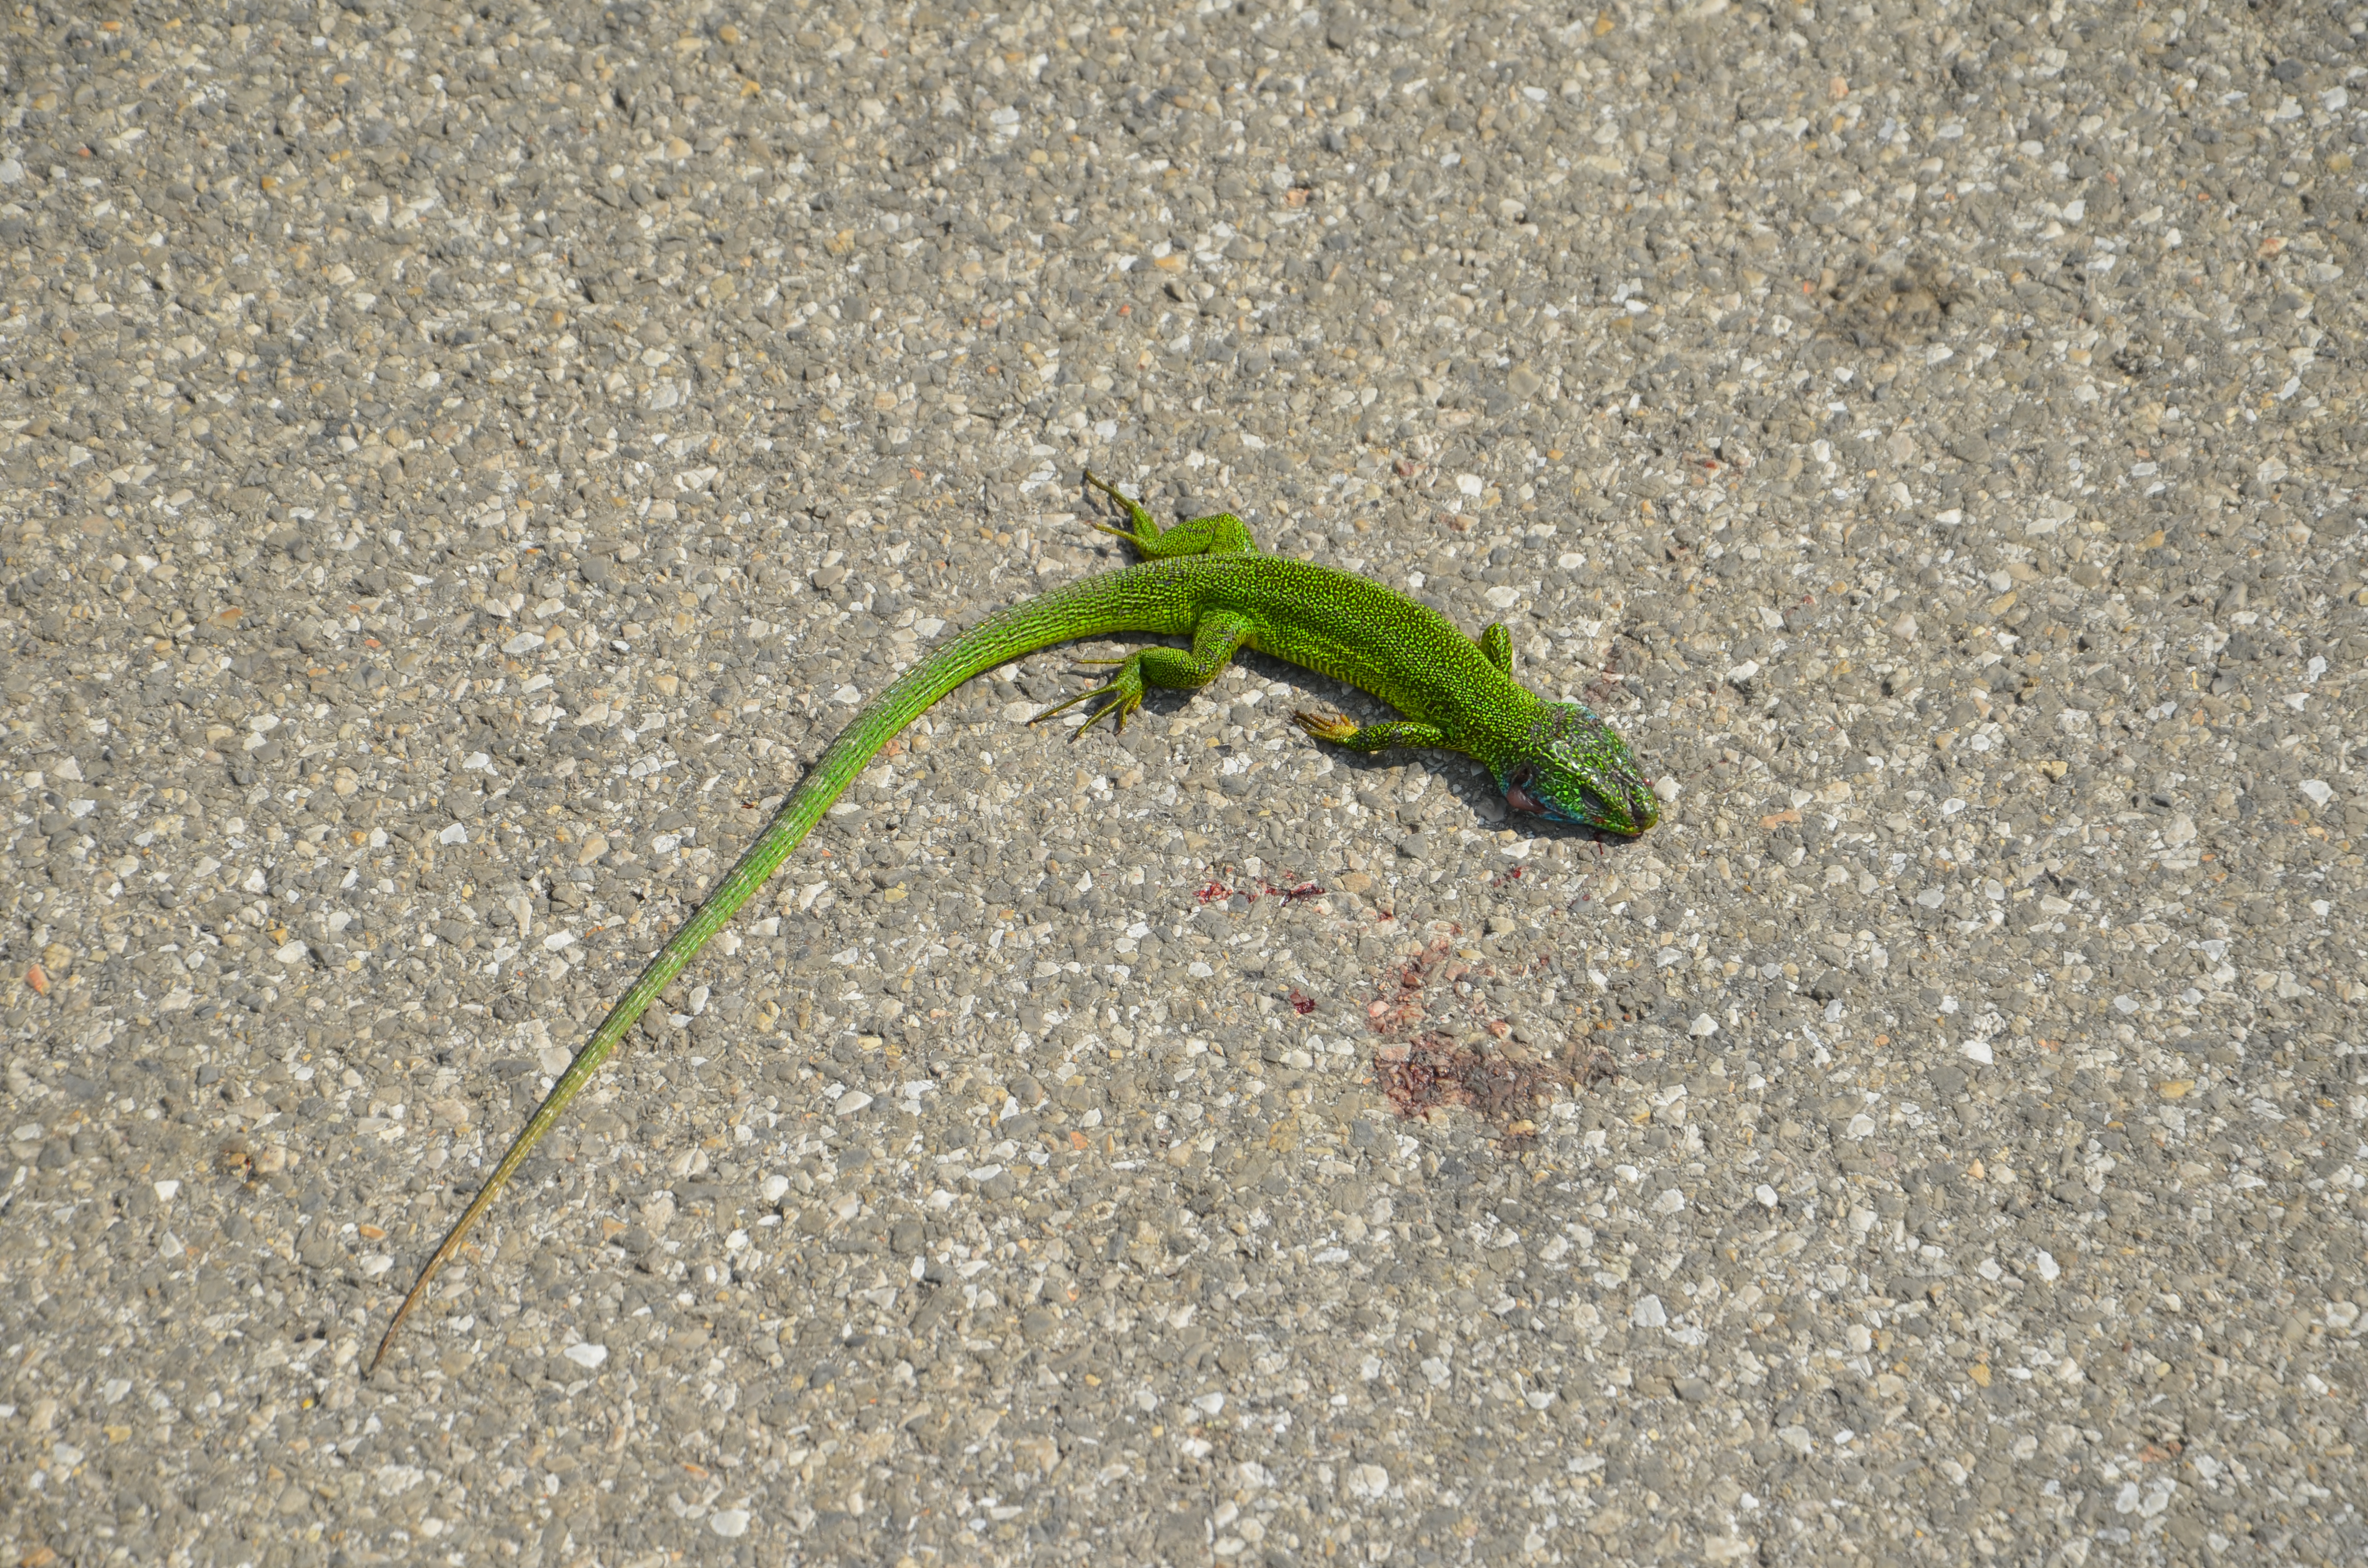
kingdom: Animalia
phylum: Chordata
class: Squamata
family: Lacertidae
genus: Lacerta
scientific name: Lacerta bilineata
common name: Western green lizard
